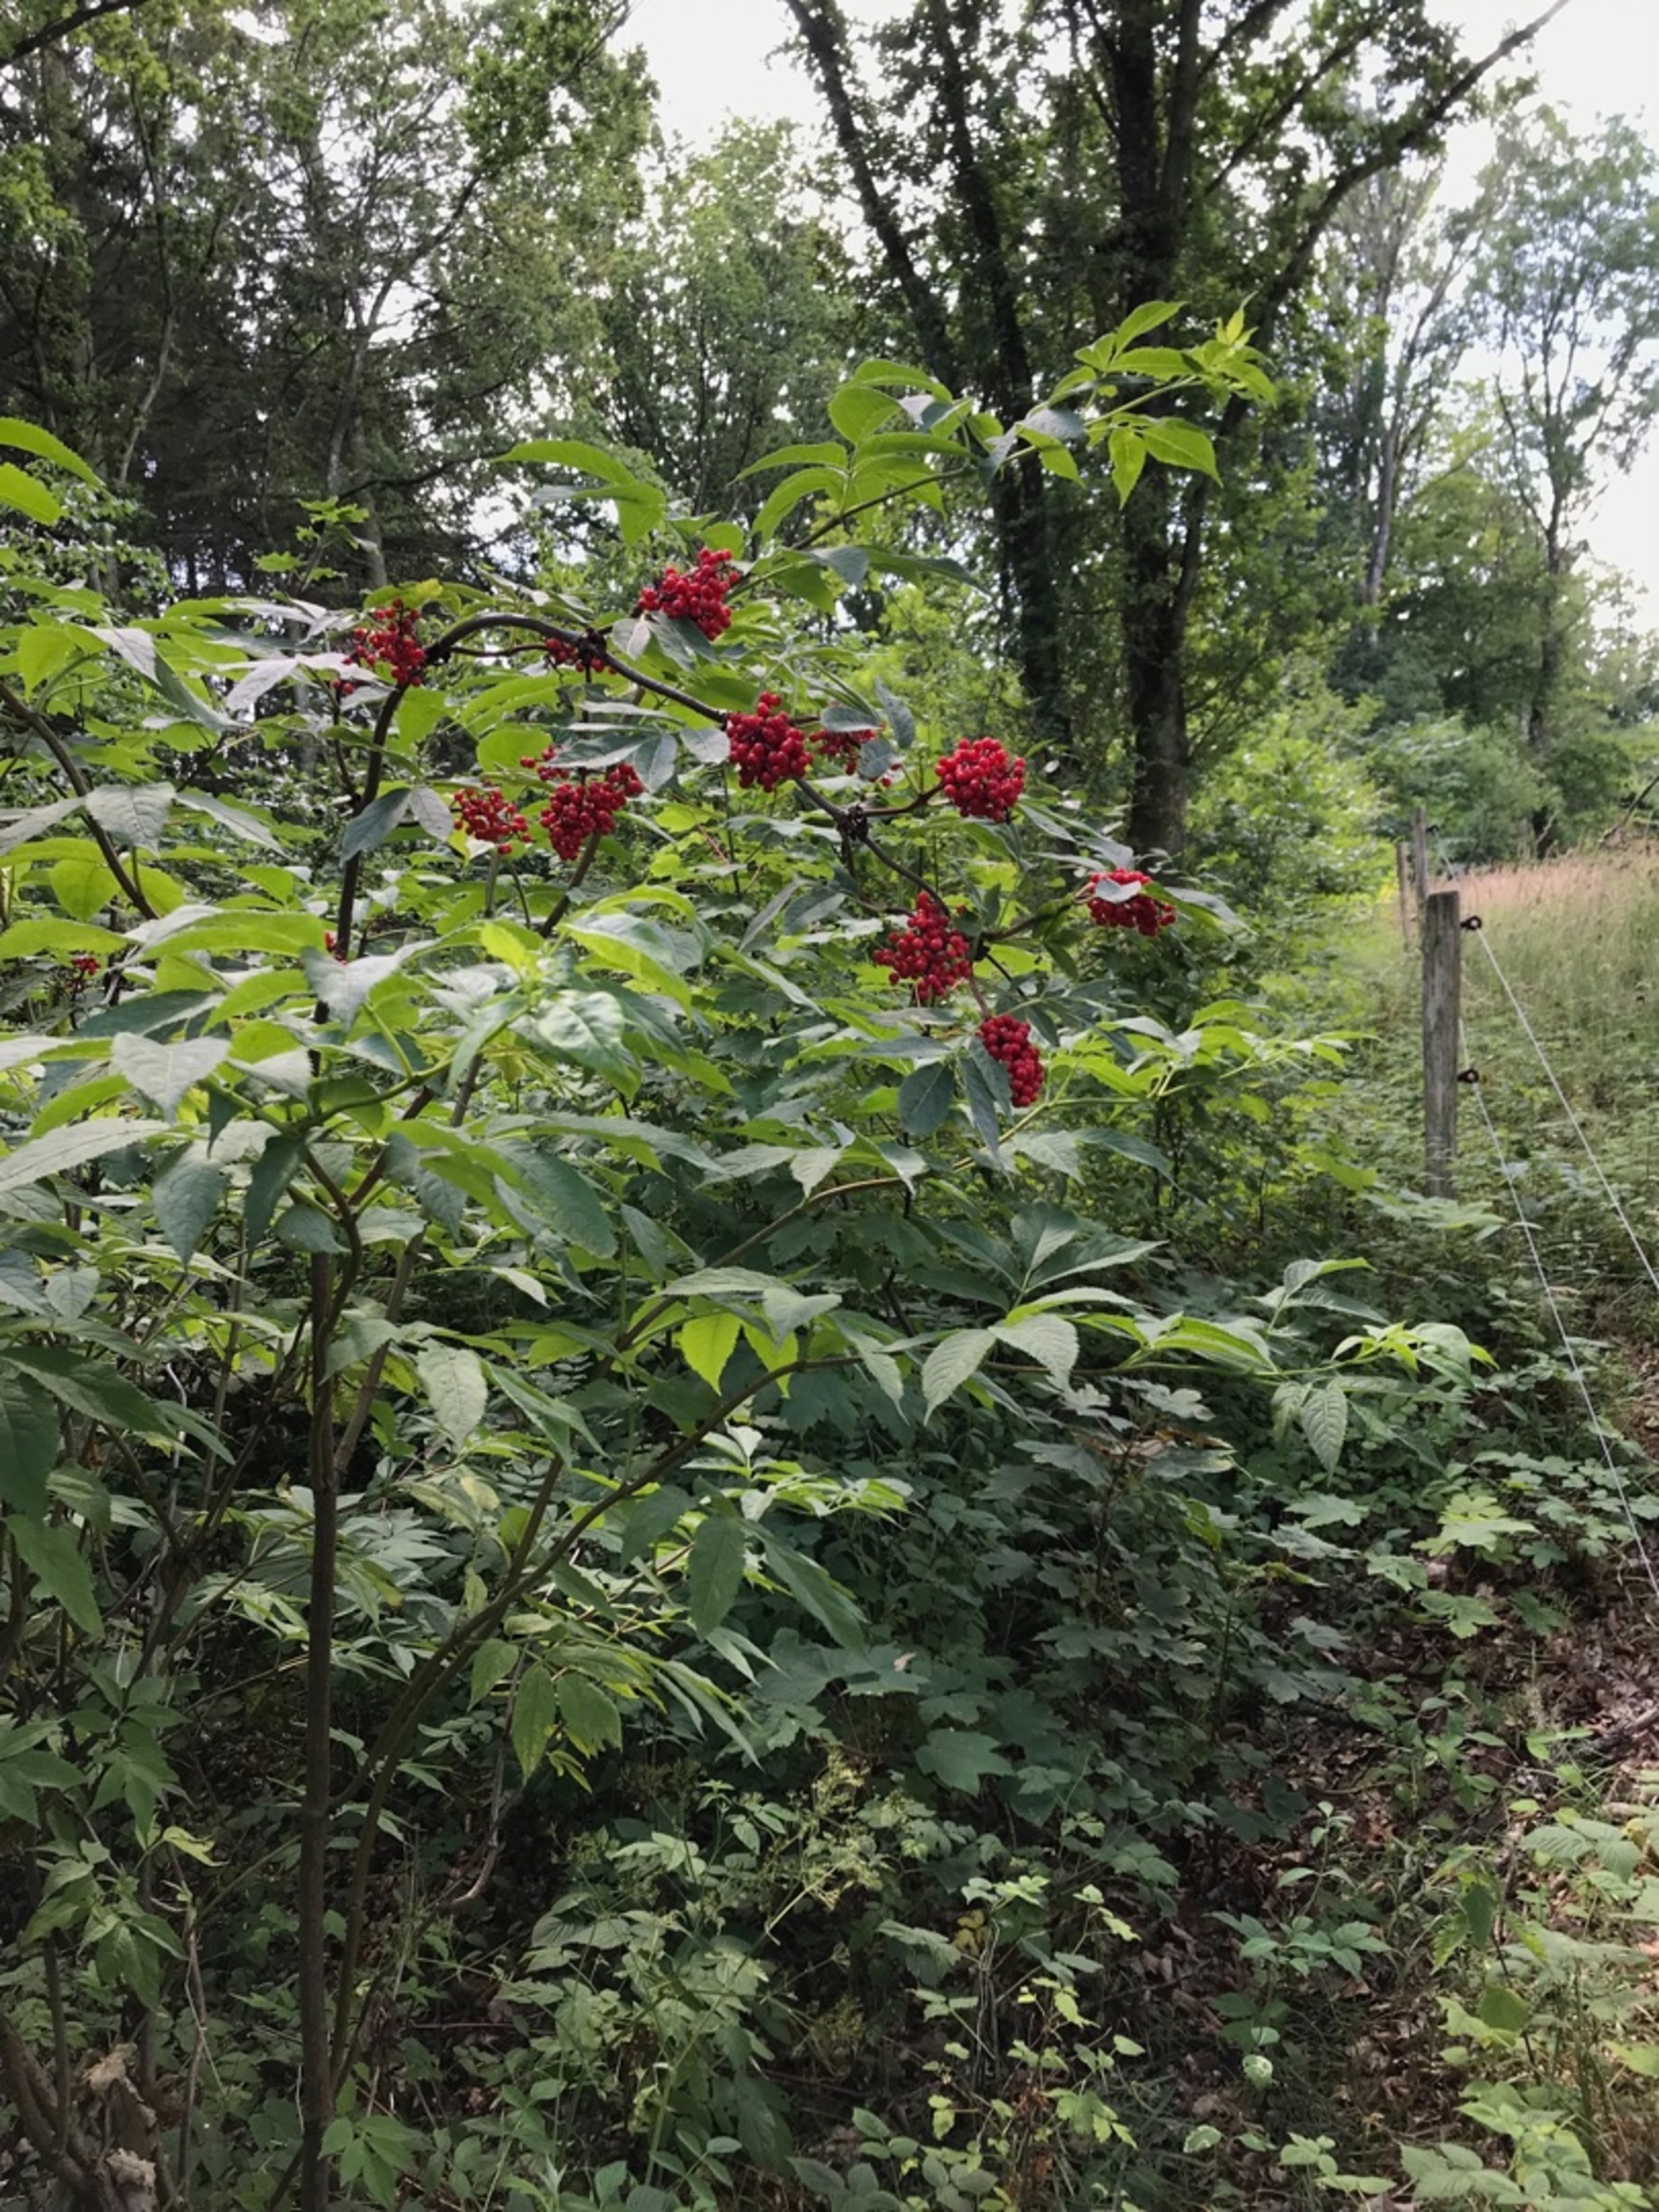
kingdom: Plantae
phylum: Tracheophyta
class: Magnoliopsida
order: Dipsacales
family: Viburnaceae
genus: Sambucus
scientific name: Sambucus racemosa
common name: Drue-hyld
